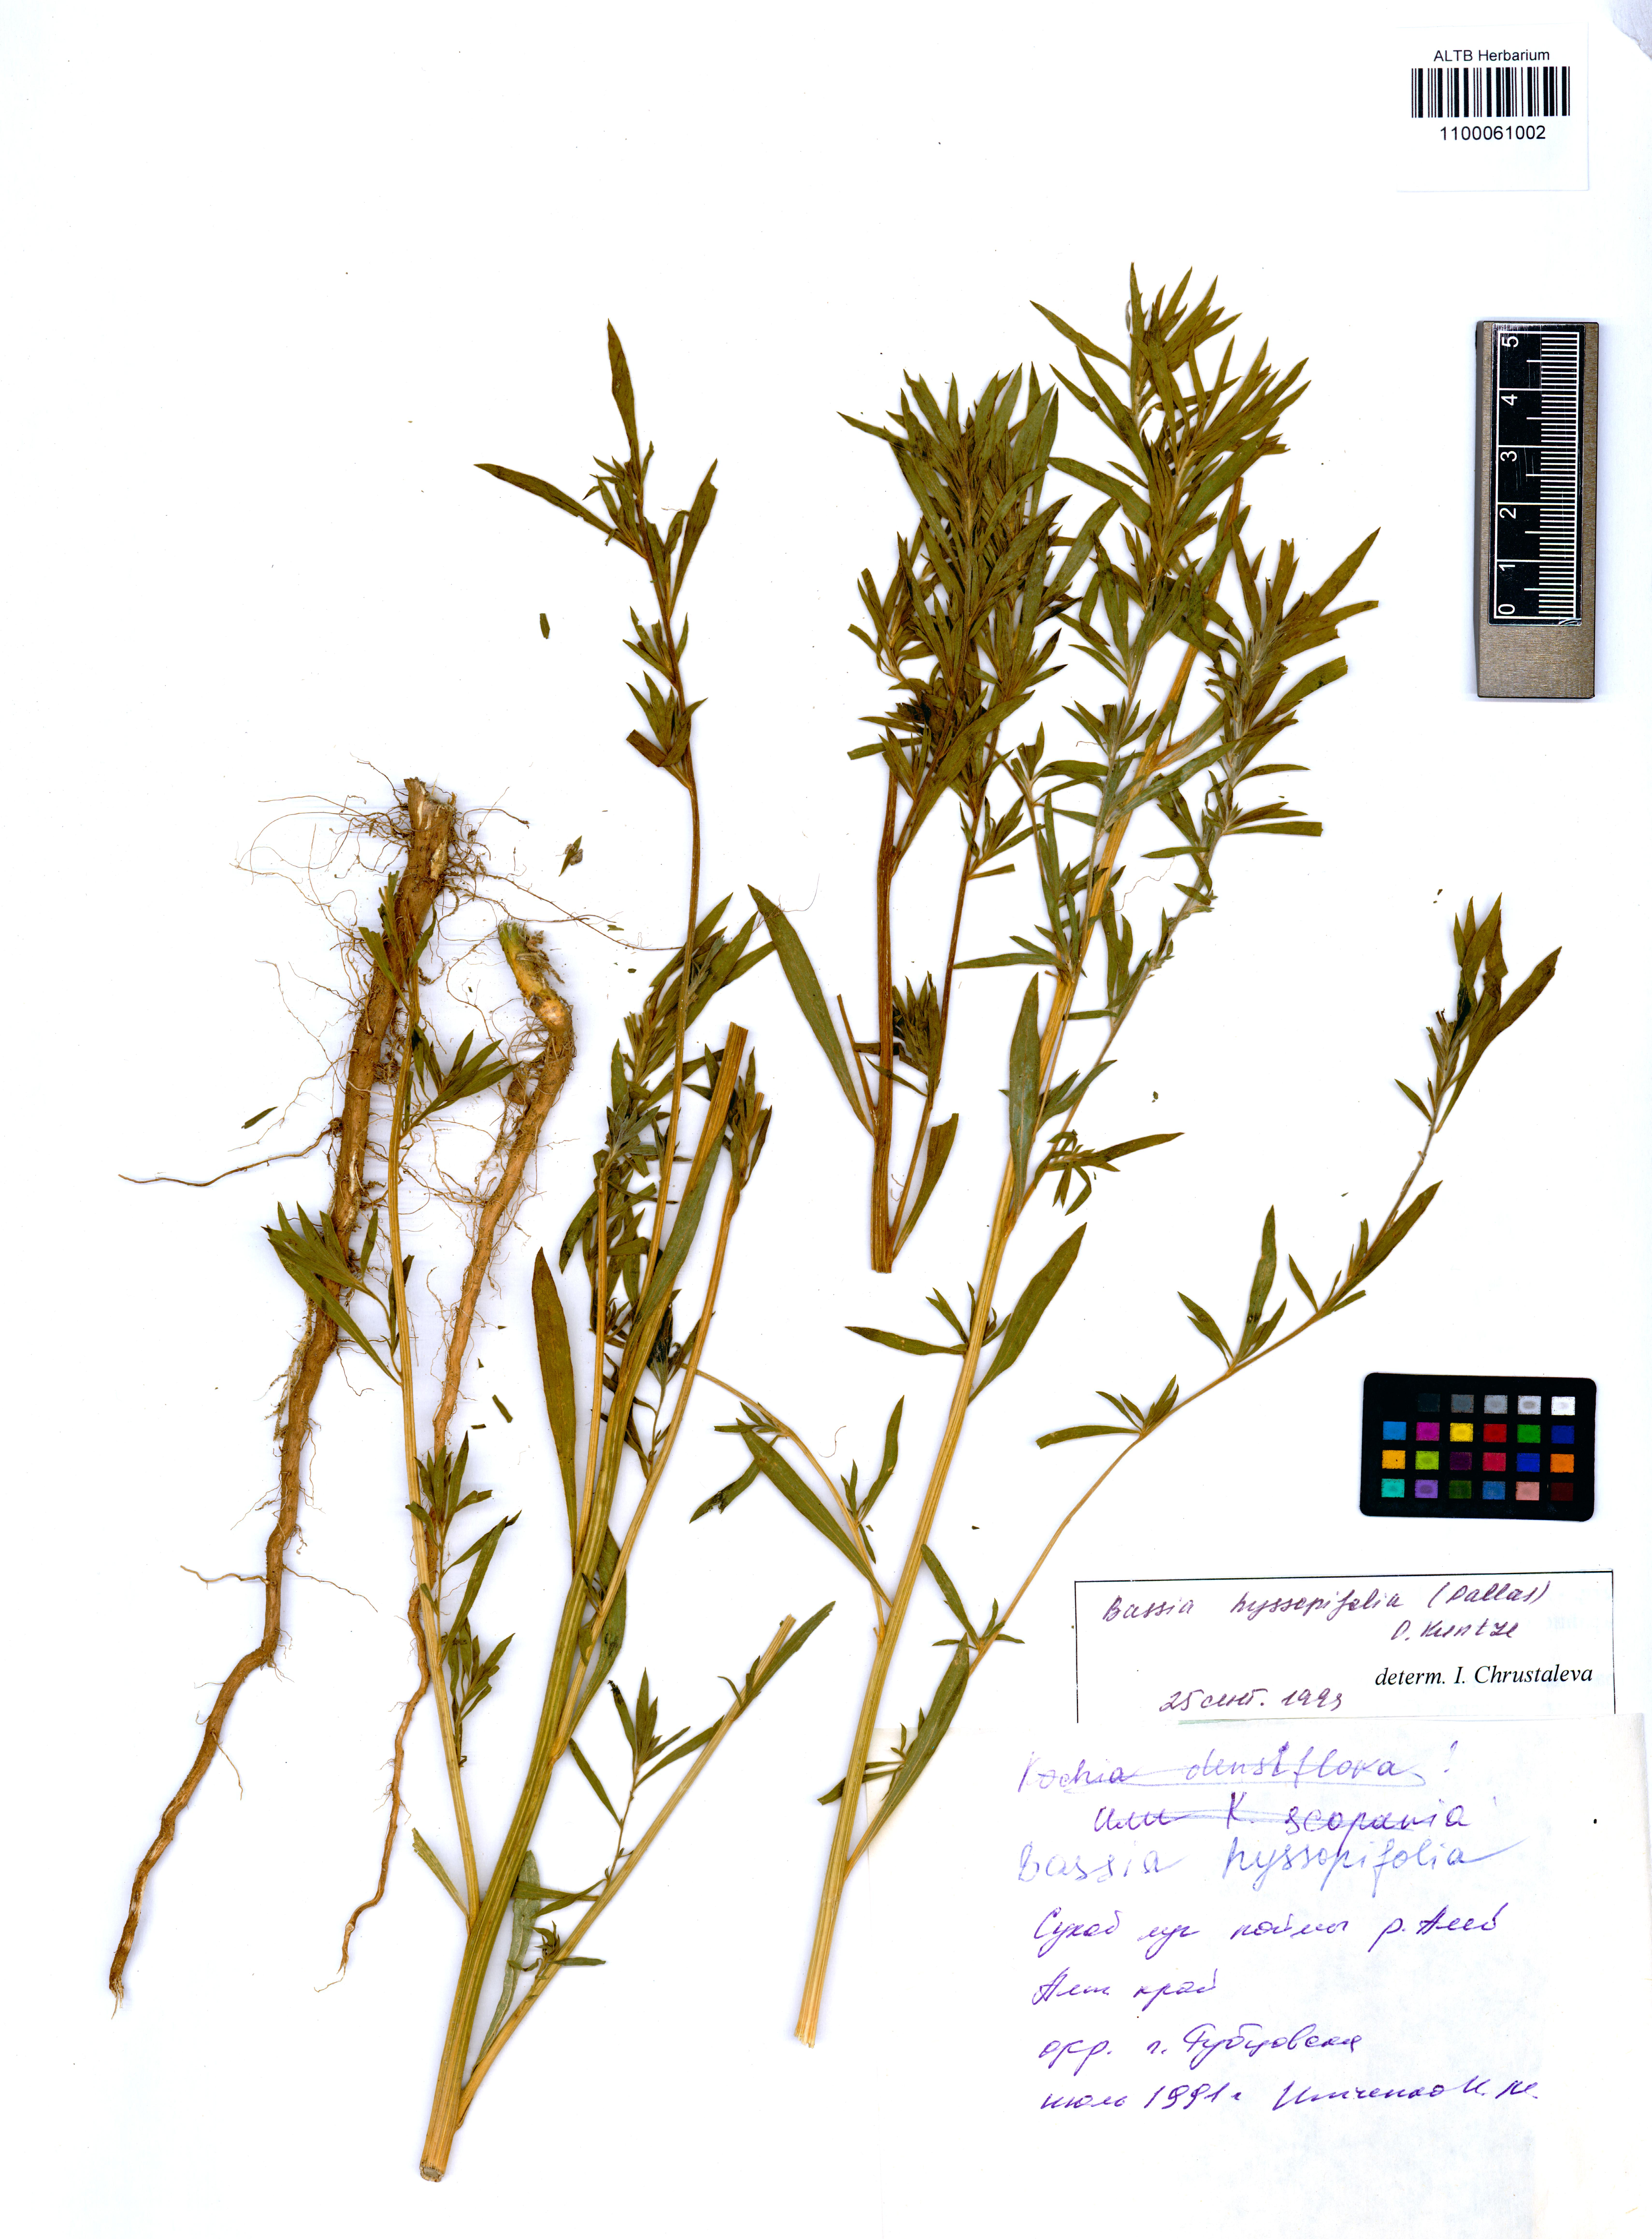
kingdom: Plantae
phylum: Tracheophyta
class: Magnoliopsida
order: Caryophyllales
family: Amaranthaceae
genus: Bassia
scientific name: Bassia hyssopifolia
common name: Fivehorn smotherweed
